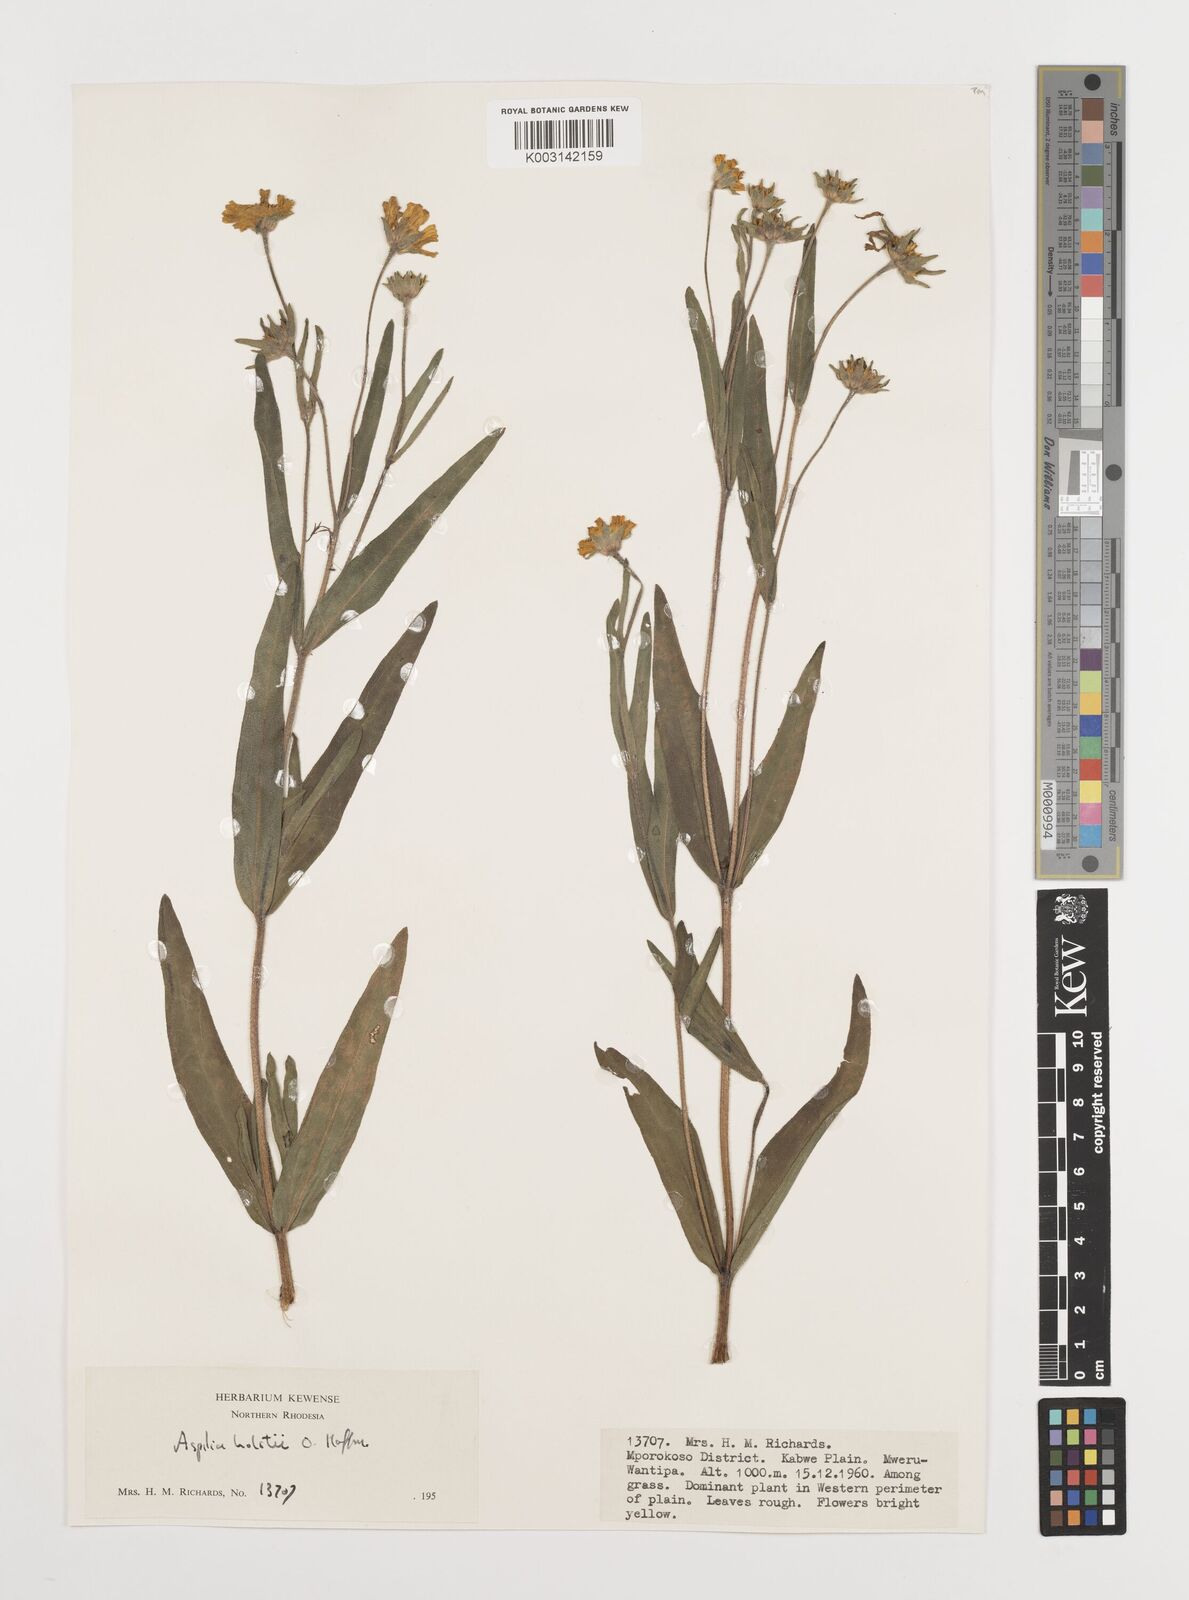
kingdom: Plantae
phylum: Tracheophyta
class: Magnoliopsida
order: Asterales
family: Asteraceae
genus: Aspilia
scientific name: Aspilia natalensis
